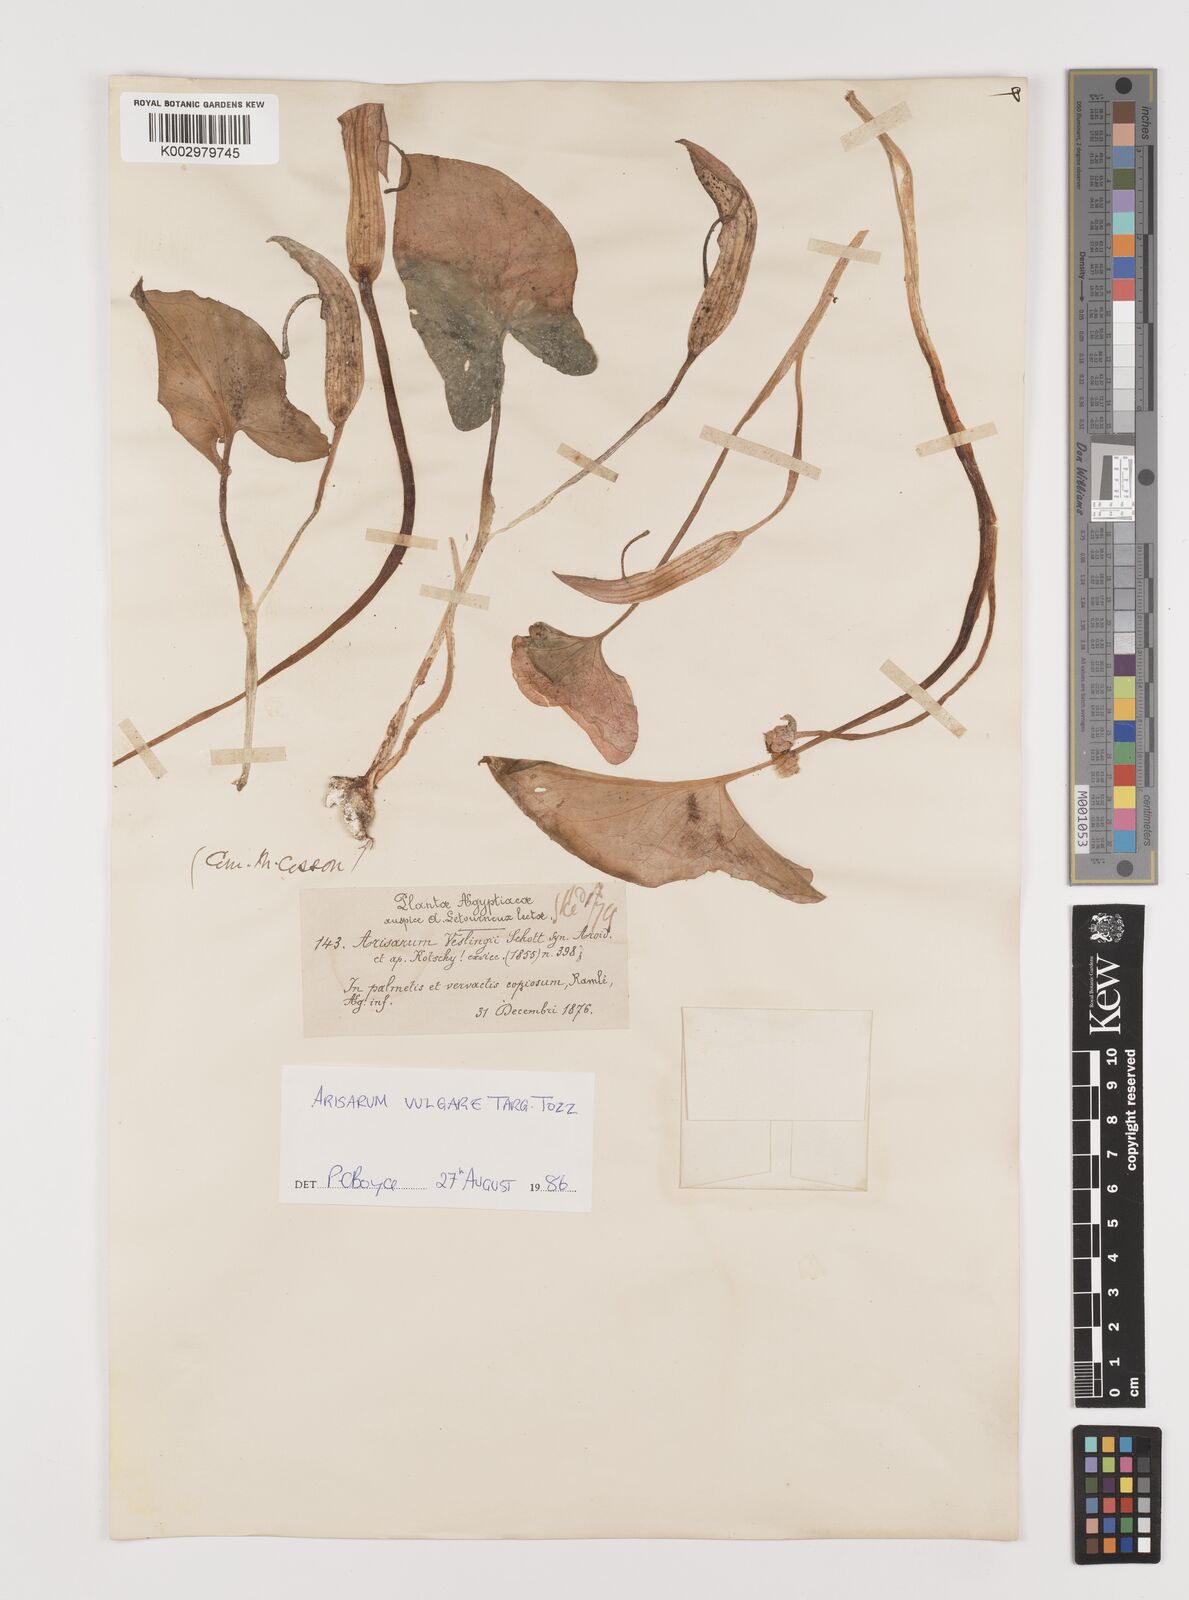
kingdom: Plantae
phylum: Tracheophyta
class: Liliopsida
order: Alismatales
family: Araceae
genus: Arisarum
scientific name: Arisarum vulgare
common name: Common arisarum
